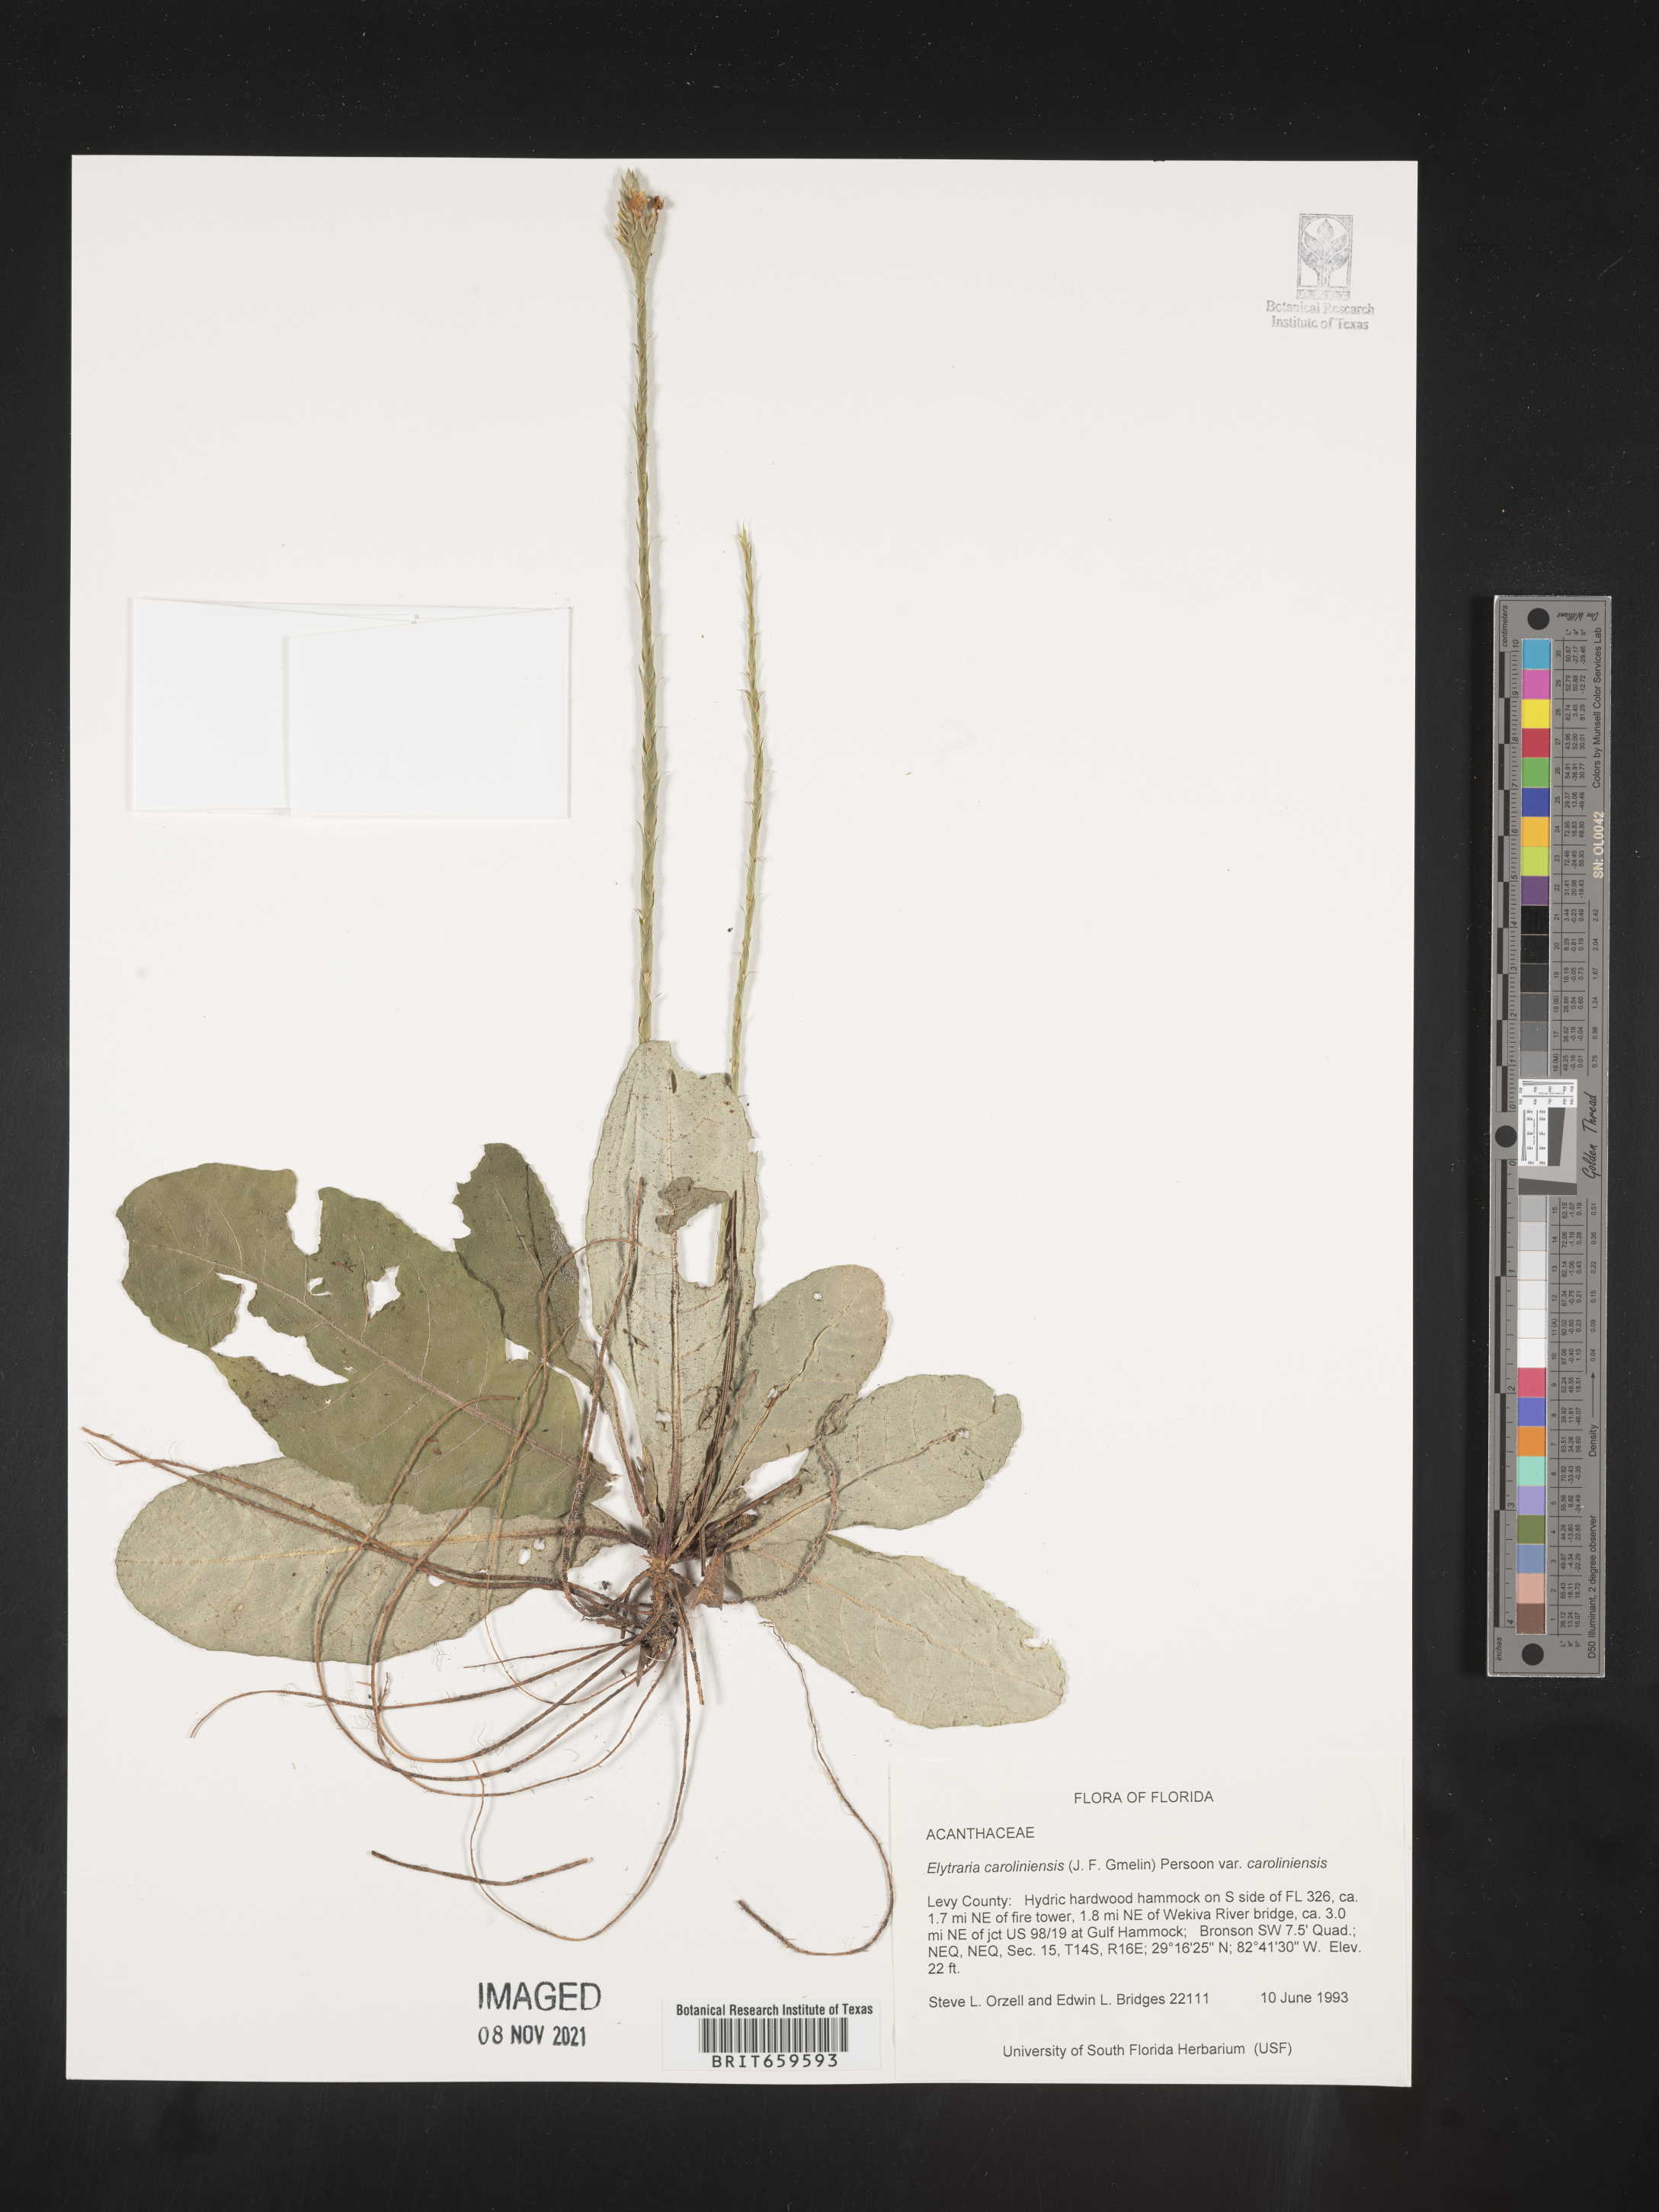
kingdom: Plantae
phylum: Tracheophyta
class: Magnoliopsida
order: Lamiales
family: Acanthaceae
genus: Elytraria
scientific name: Elytraria imbricata
